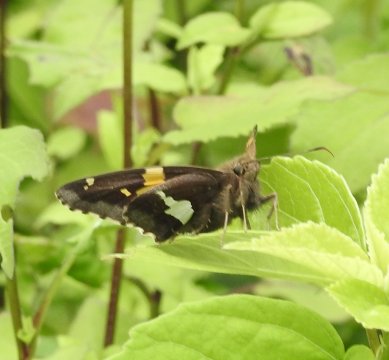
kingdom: Animalia
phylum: Arthropoda
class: Insecta
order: Lepidoptera
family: Hesperiidae
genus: Epargyreus
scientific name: Epargyreus clarus
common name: Silver-spotted Skipper
